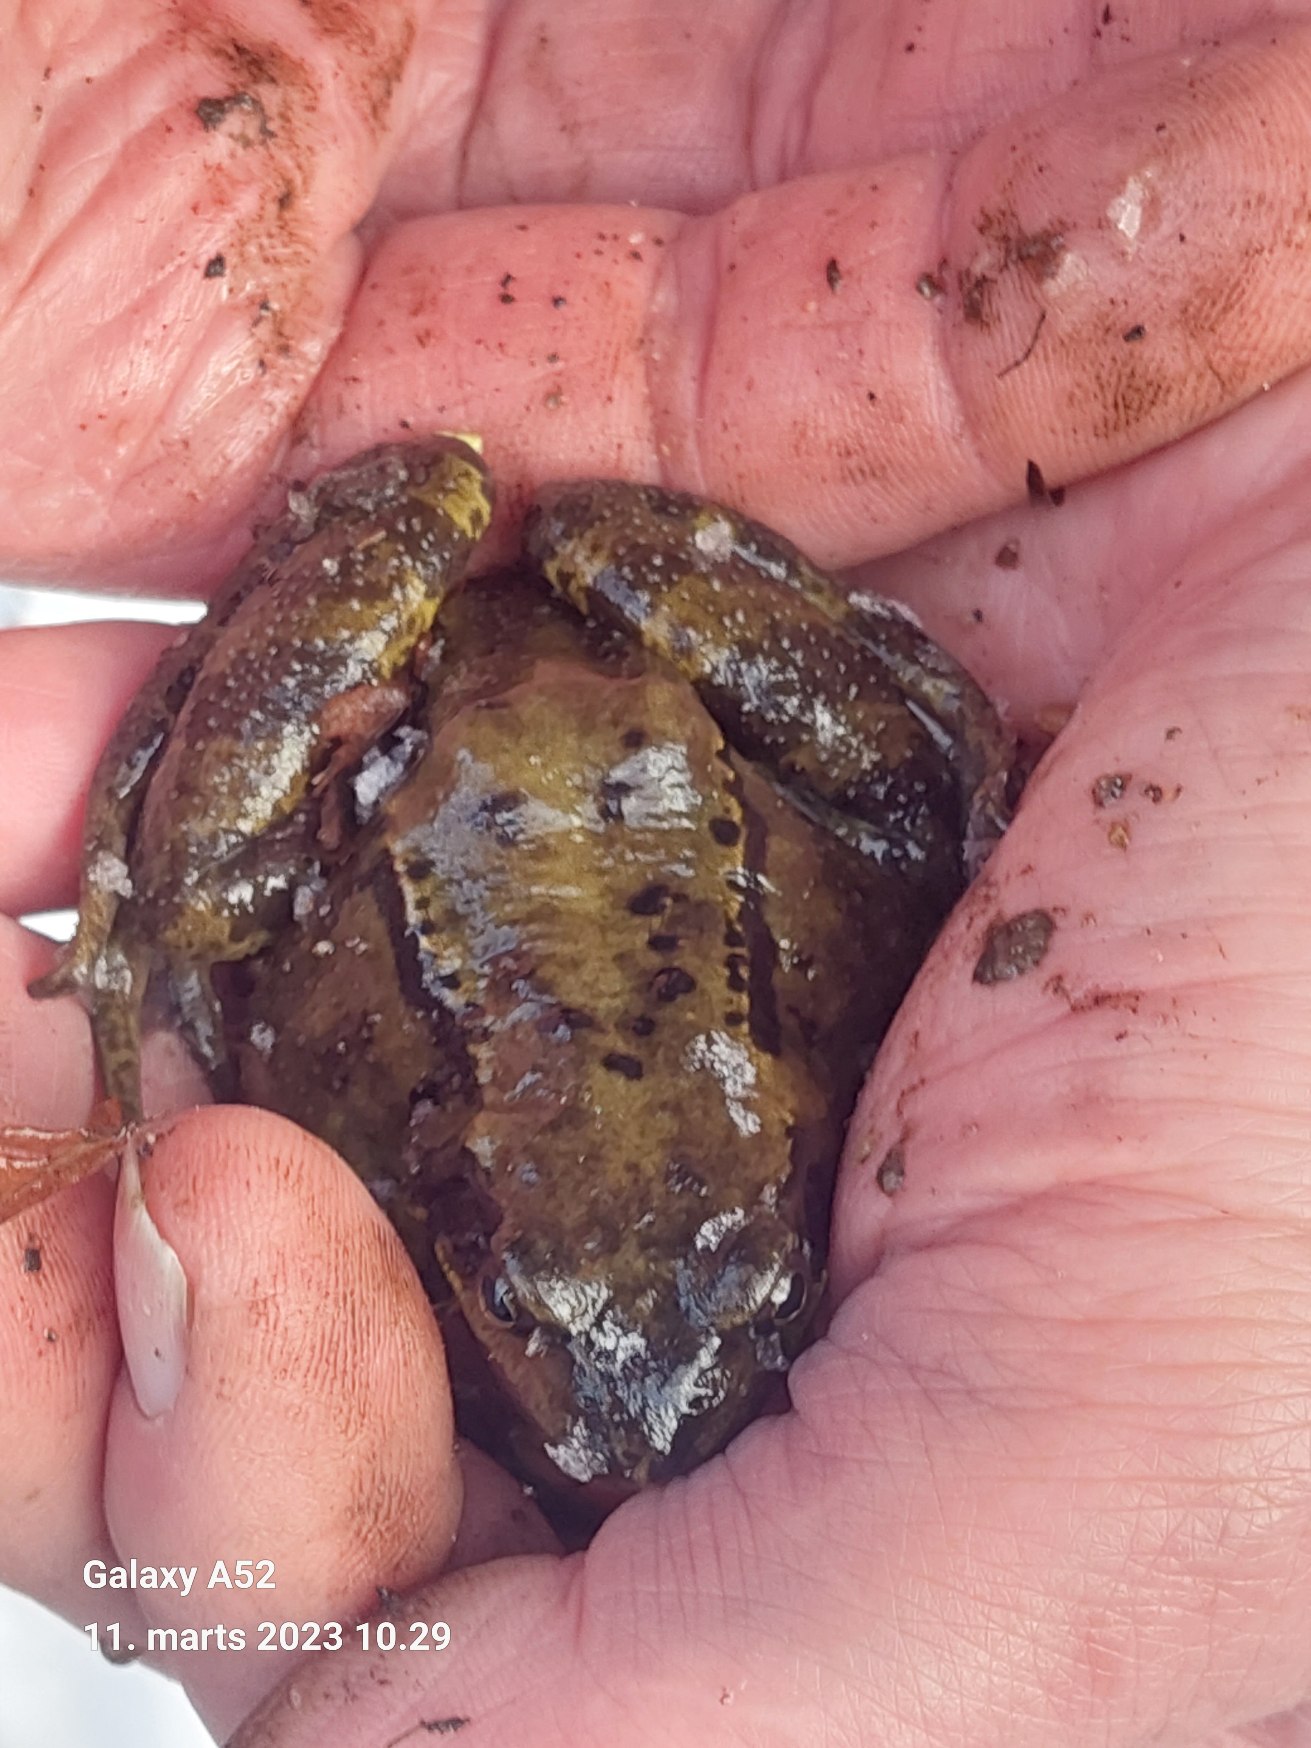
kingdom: Animalia
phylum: Chordata
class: Amphibia
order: Anura
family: Ranidae
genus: Rana
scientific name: Rana temporaria
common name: Butsnudet frø
